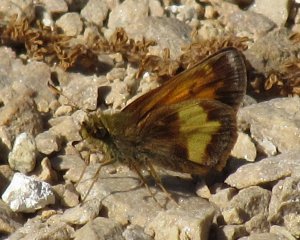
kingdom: Animalia
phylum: Arthropoda
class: Insecta
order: Lepidoptera
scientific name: Lepidoptera
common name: Butterflies
